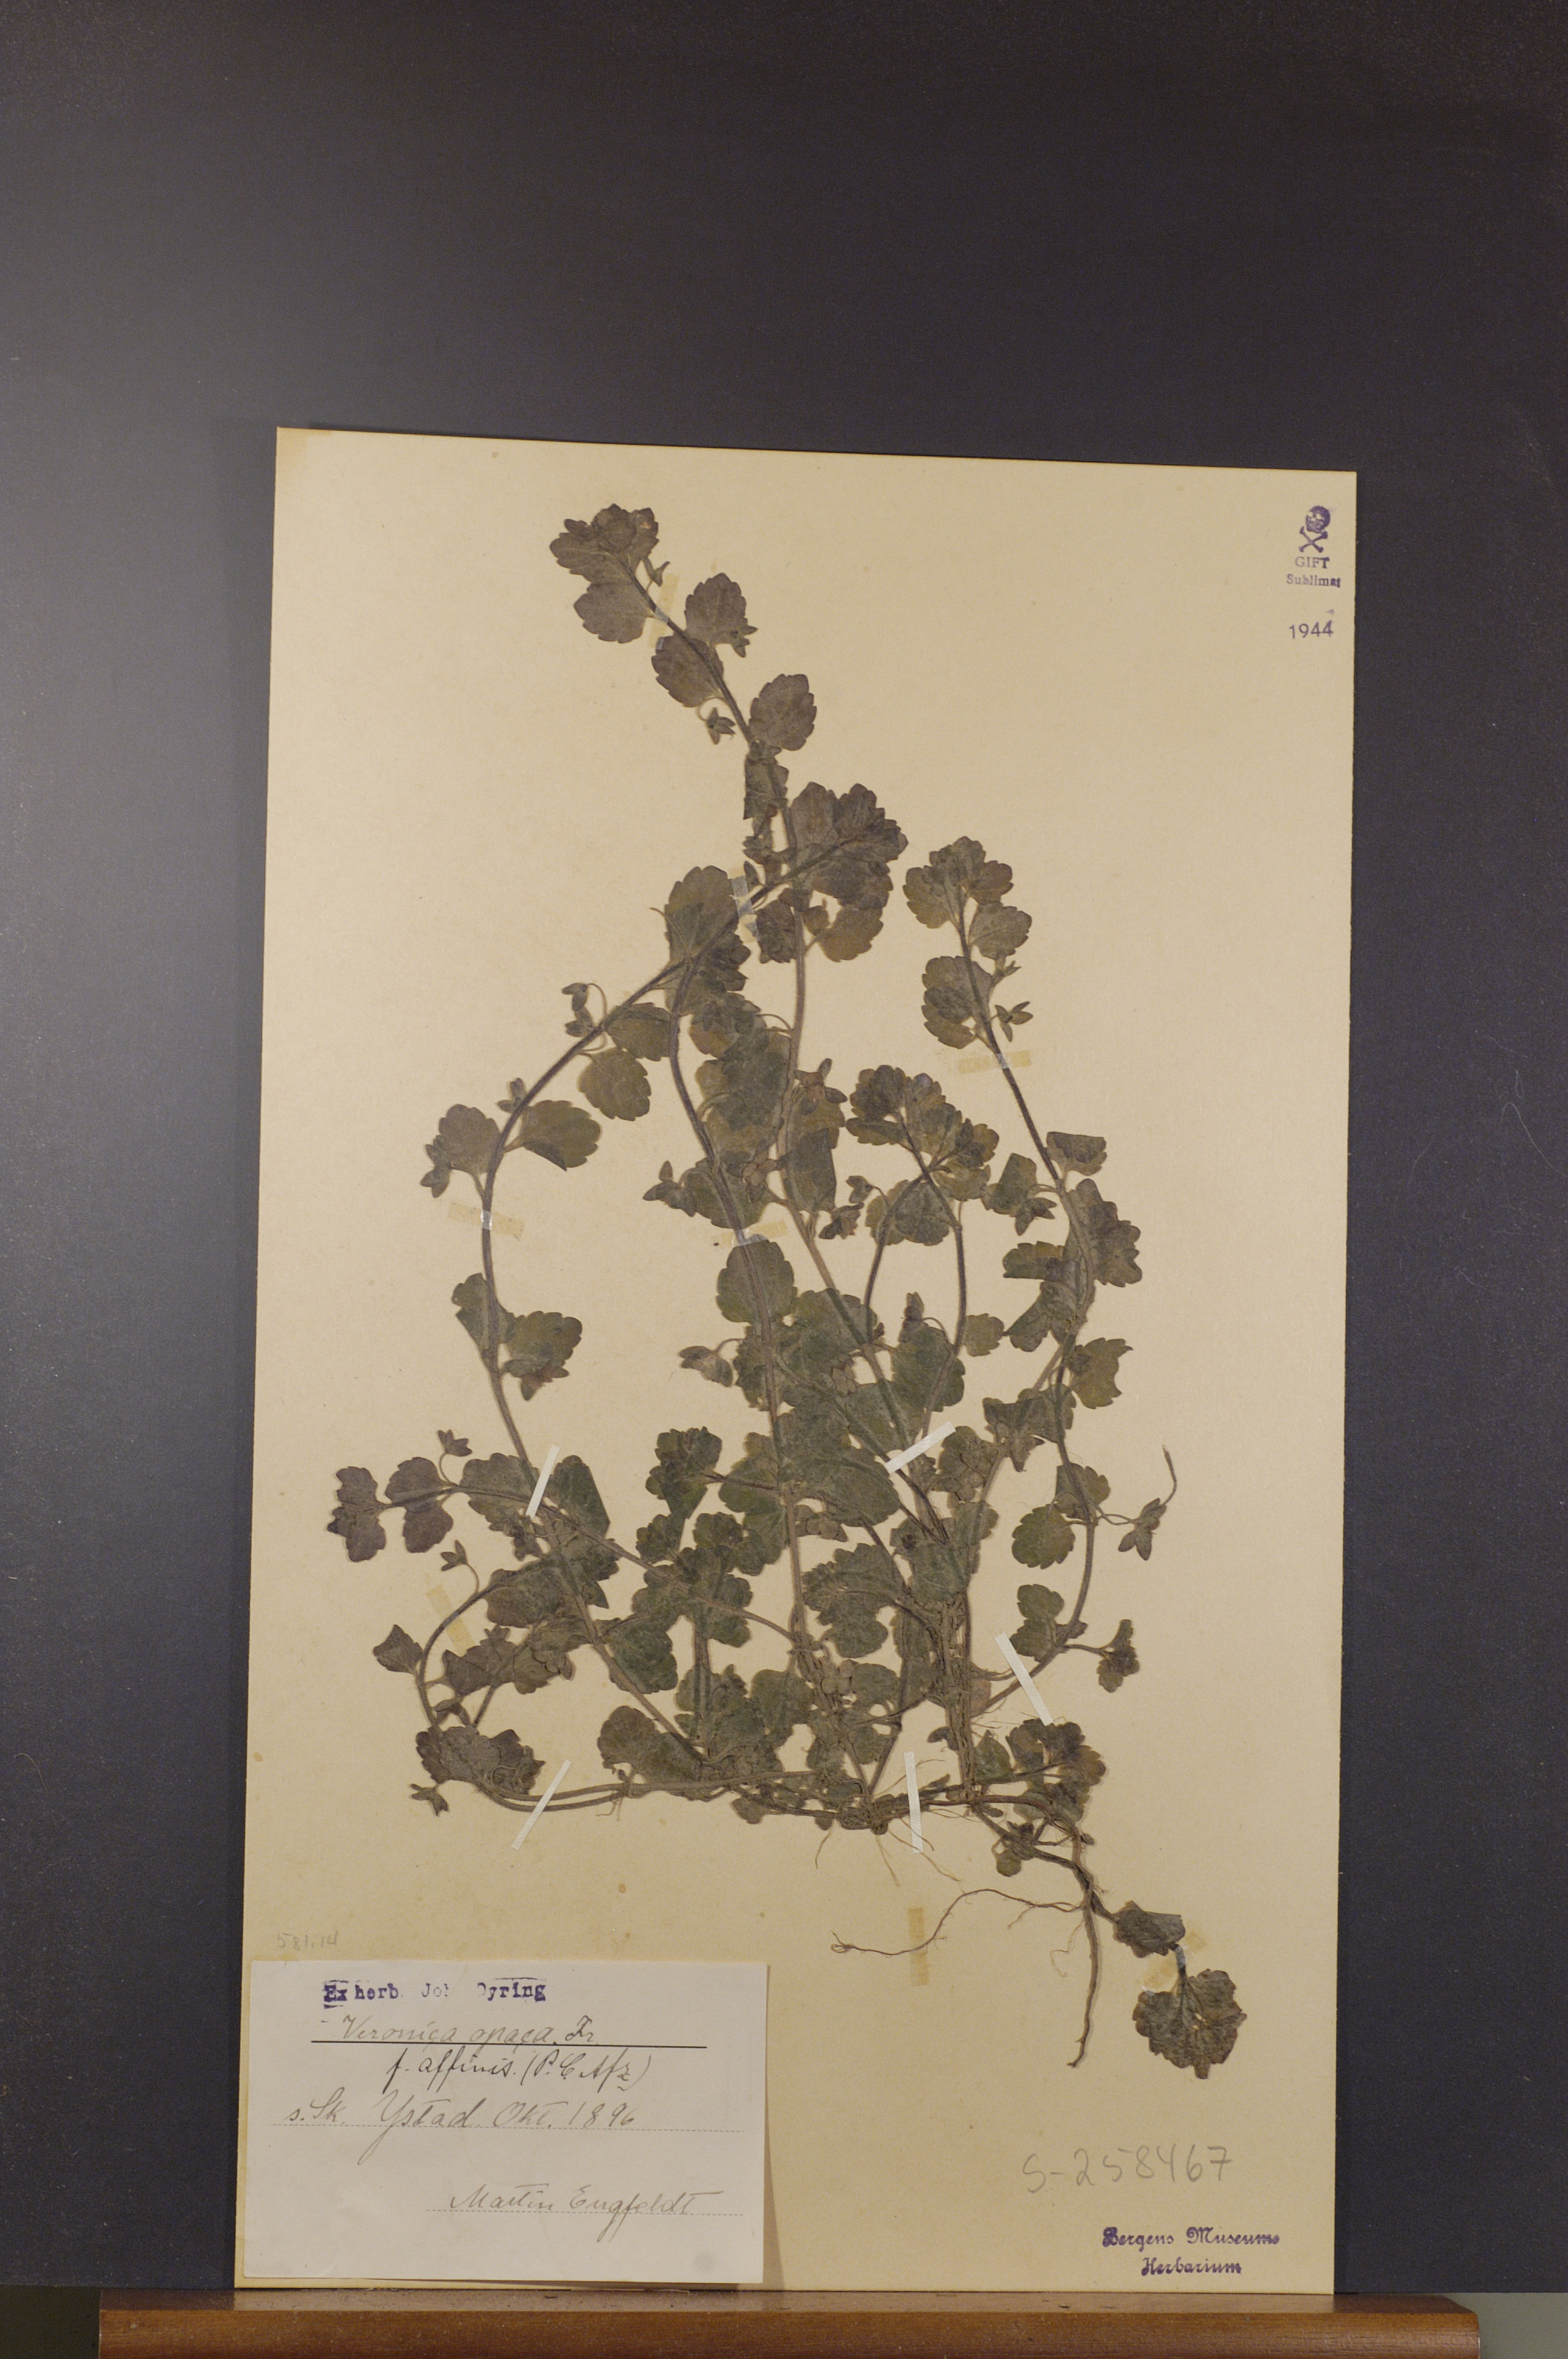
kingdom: Plantae
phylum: Tracheophyta
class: Magnoliopsida
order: Lamiales
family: Plantaginaceae
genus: Veronica
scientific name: Veronica opaca
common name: Dark speedwell
